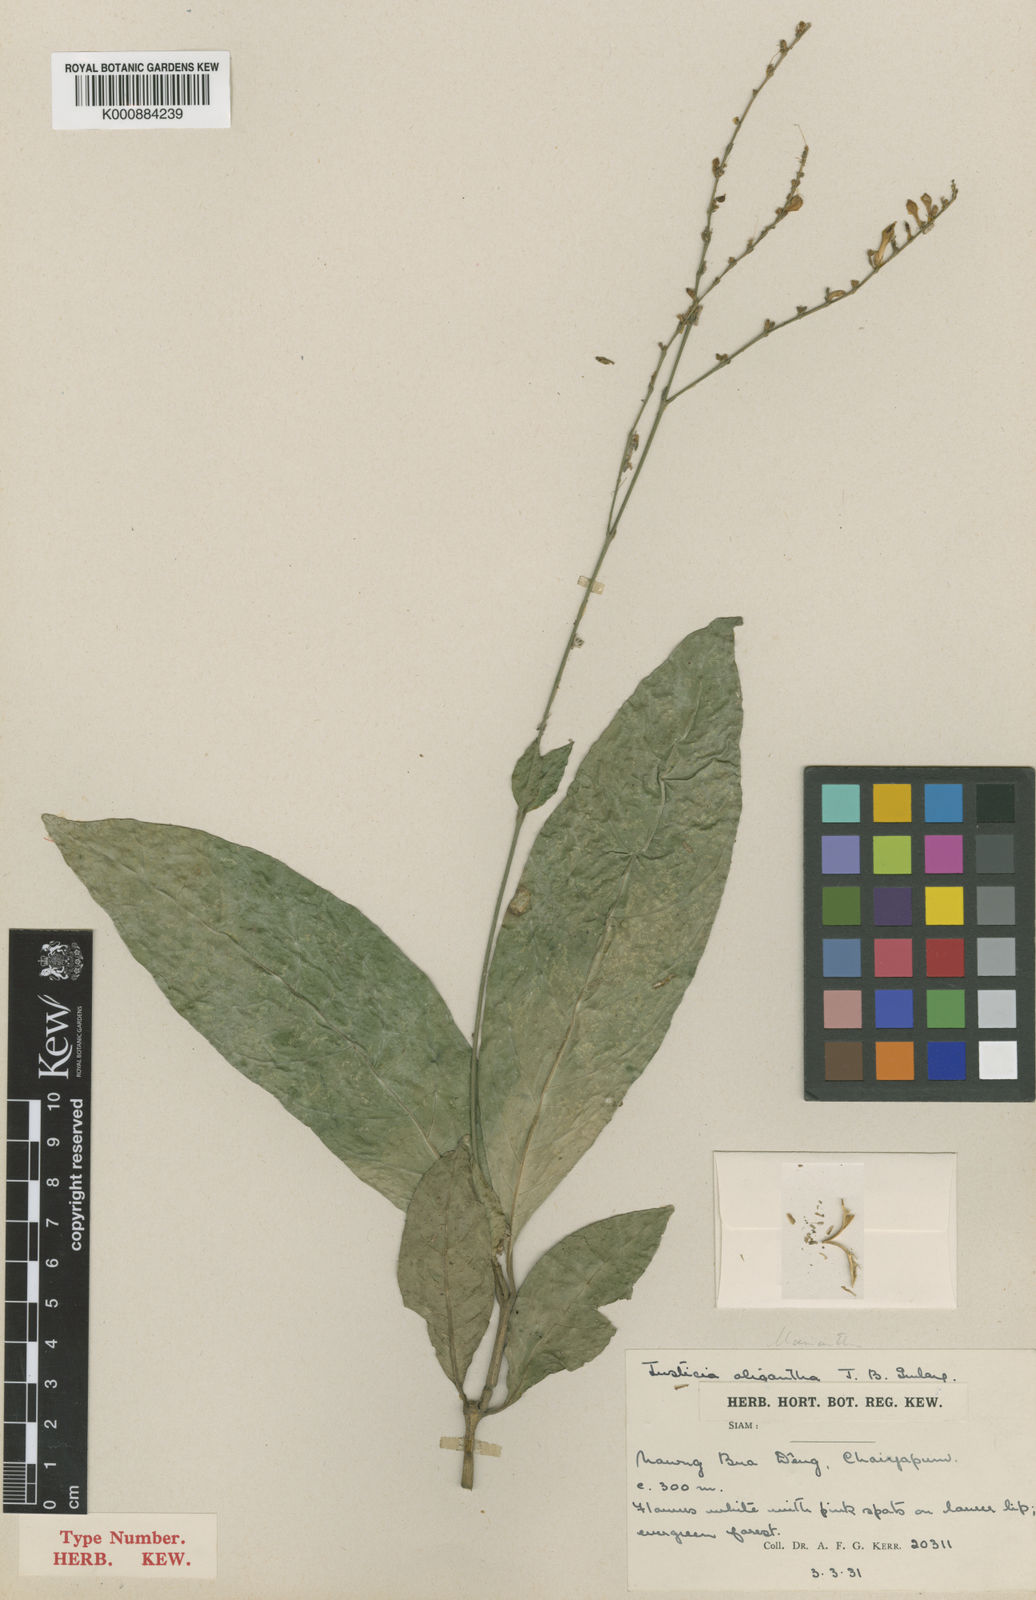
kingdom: Plantae
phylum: Tracheophyta
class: Magnoliopsida
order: Lamiales
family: Acanthaceae
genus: Justicia
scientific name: Justicia remotifolia
